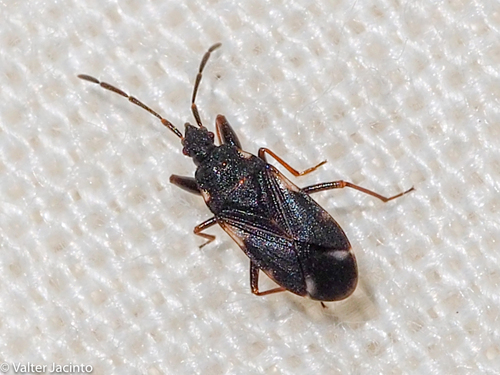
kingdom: Animalia
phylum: Arthropoda
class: Insecta
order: Hemiptera
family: Rhyparochromidae
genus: Taphropeltus
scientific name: Taphropeltus contractus
